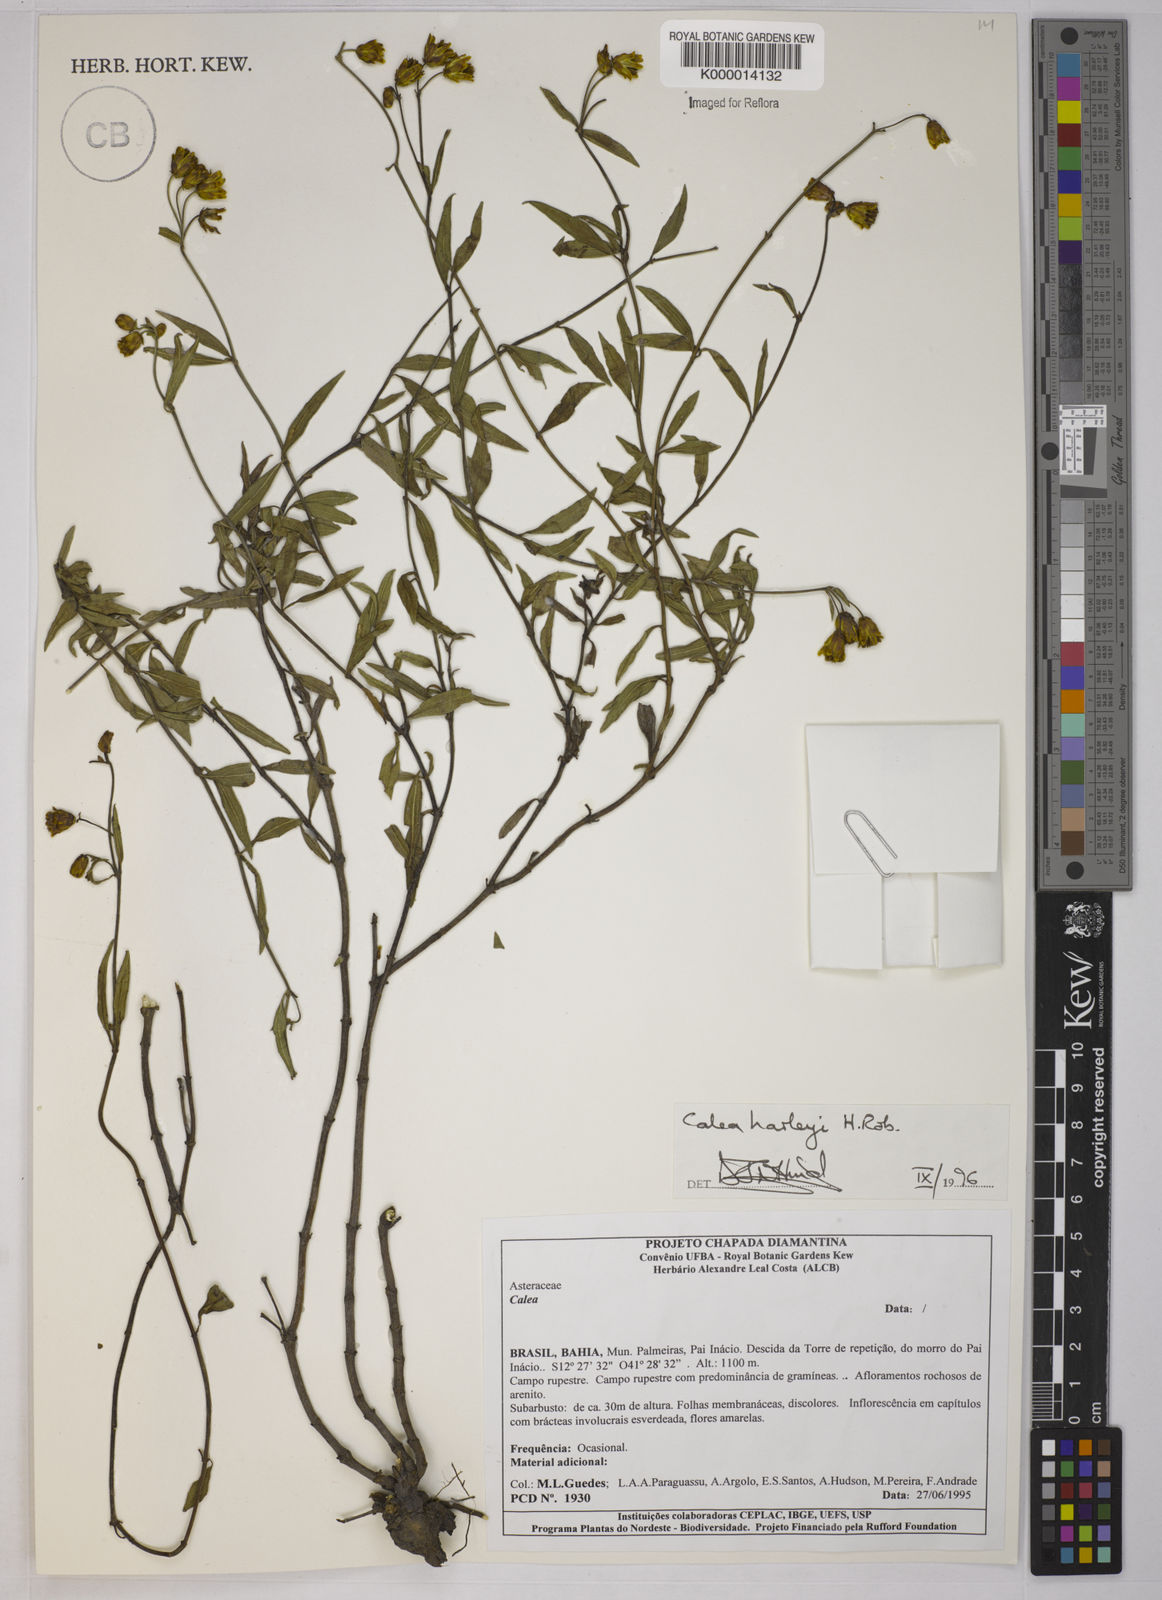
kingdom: Plantae
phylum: Tracheophyta
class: Magnoliopsida
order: Asterales
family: Asteraceae
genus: Calea
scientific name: Calea harleyi
